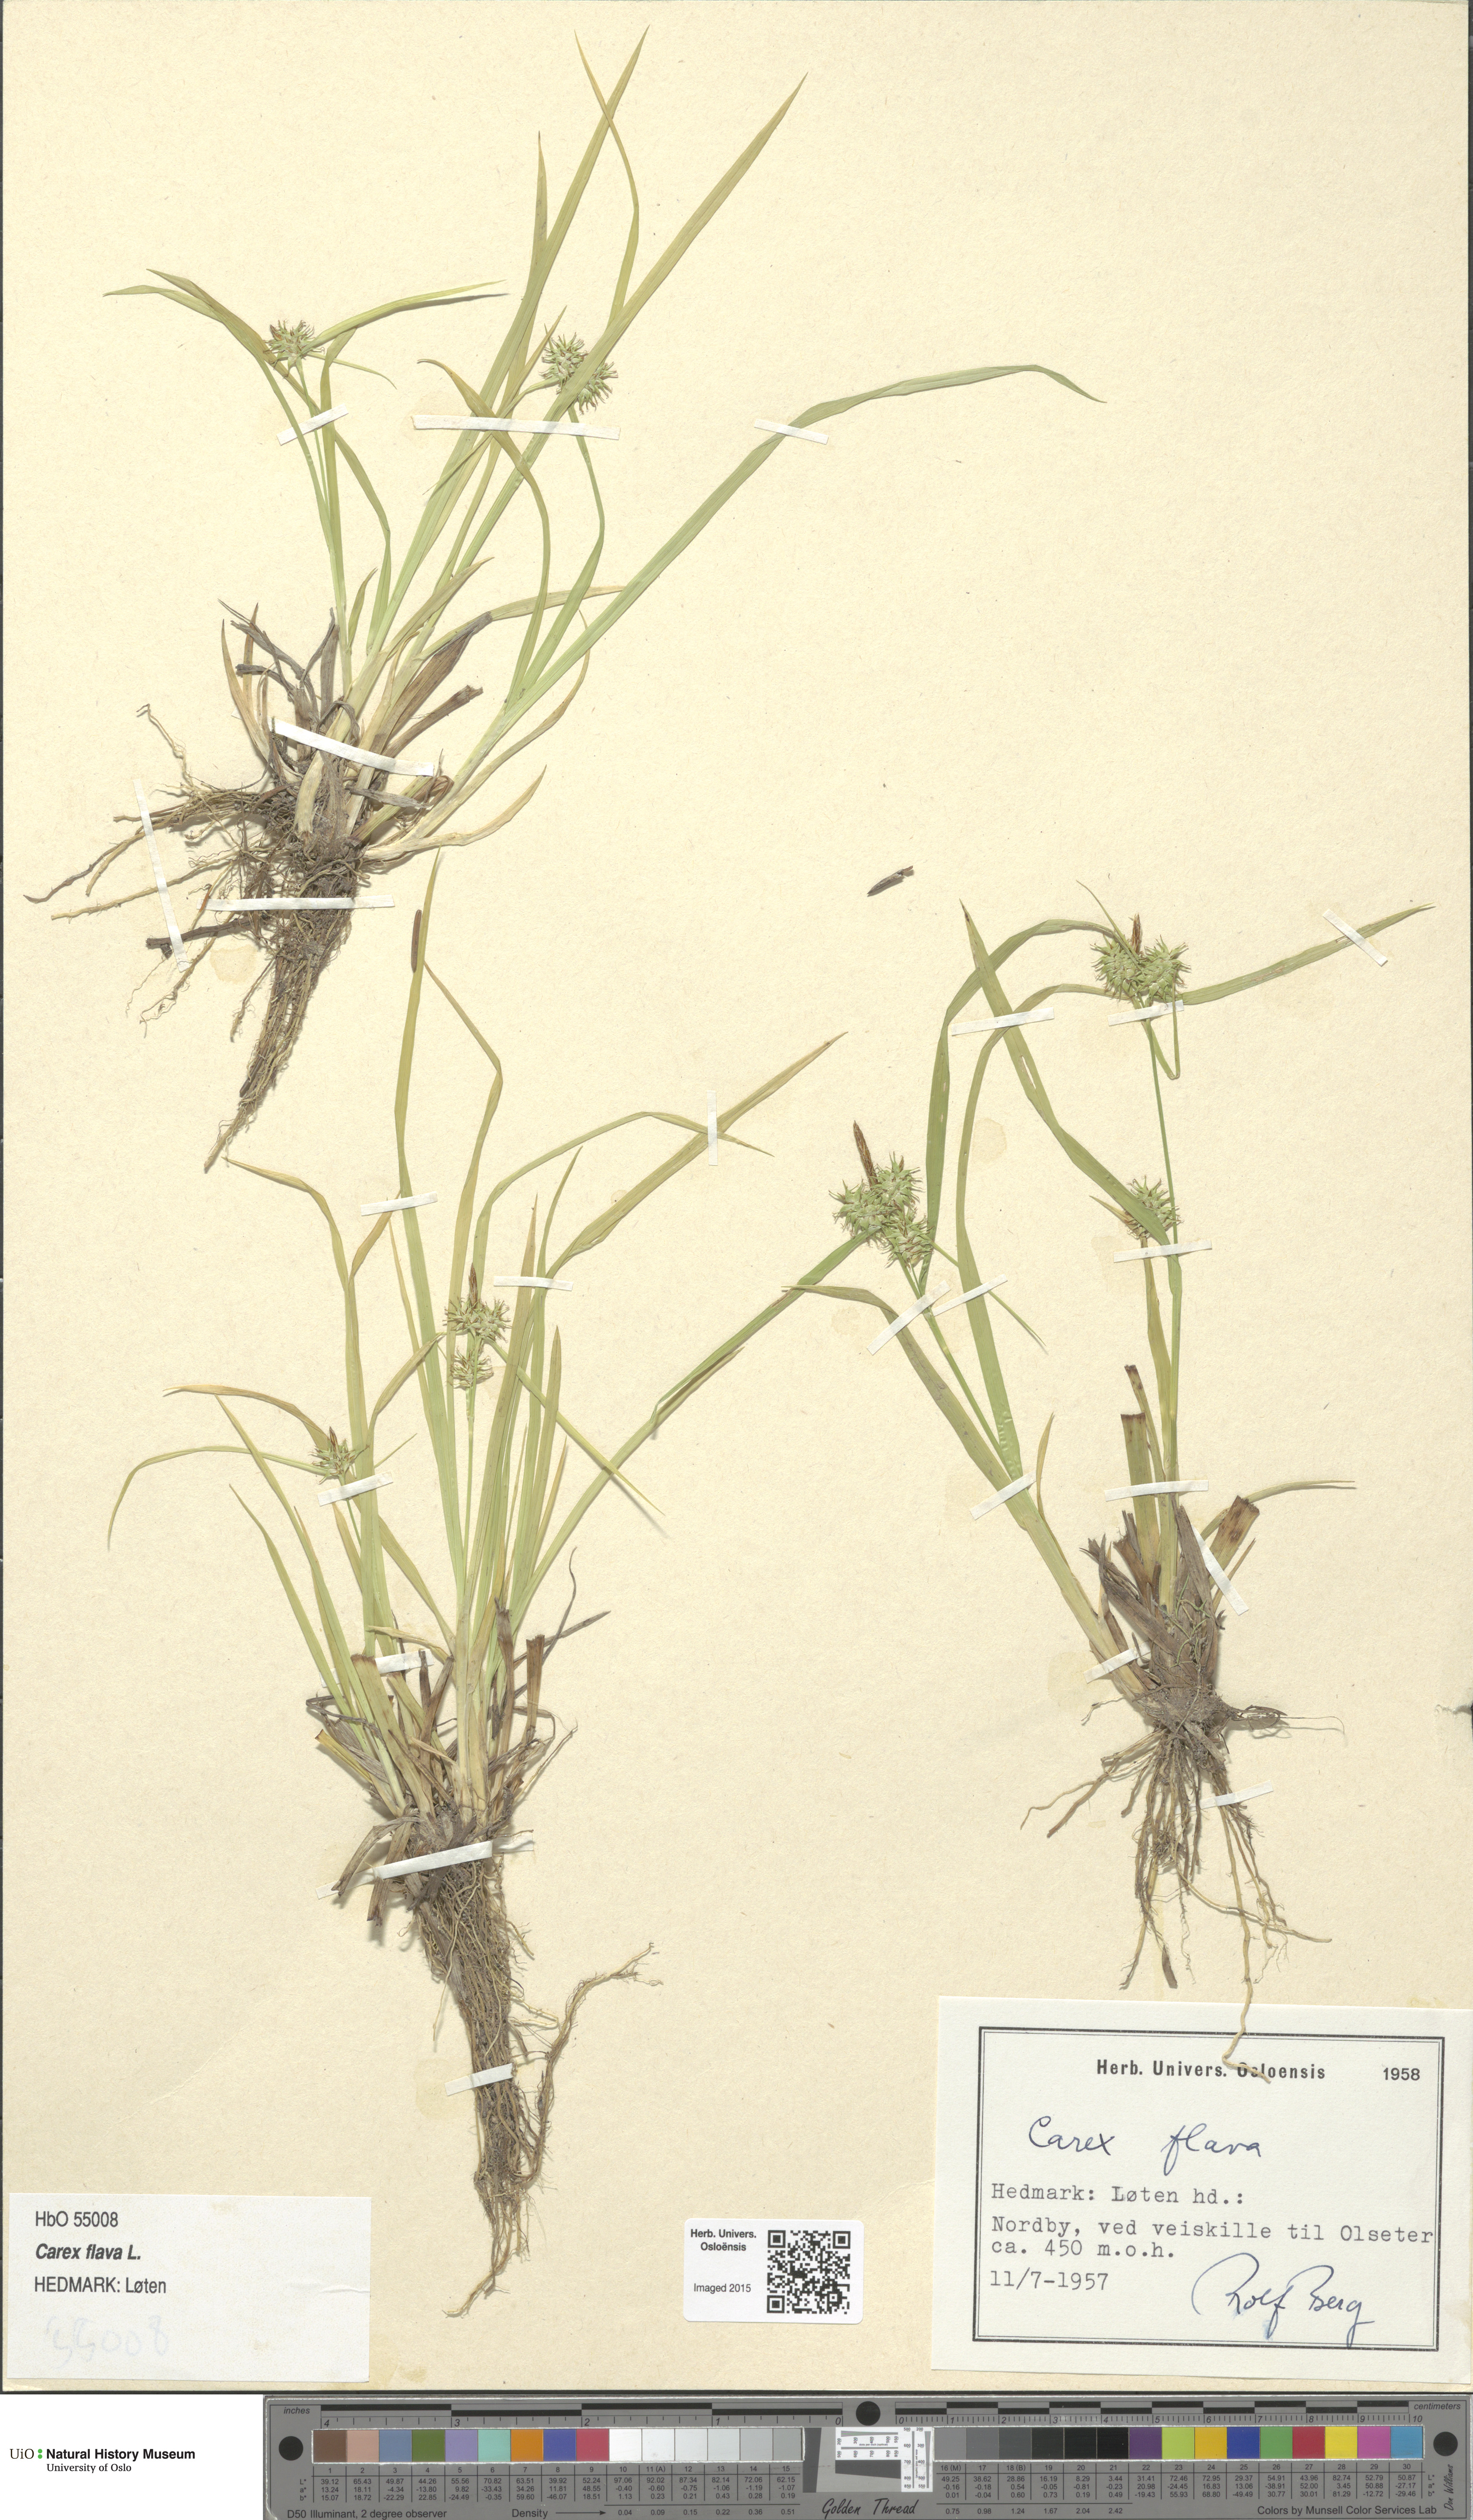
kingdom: Plantae
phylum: Tracheophyta
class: Liliopsida
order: Poales
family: Cyperaceae
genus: Carex
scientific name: Carex flava
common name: Large yellow-sedge
